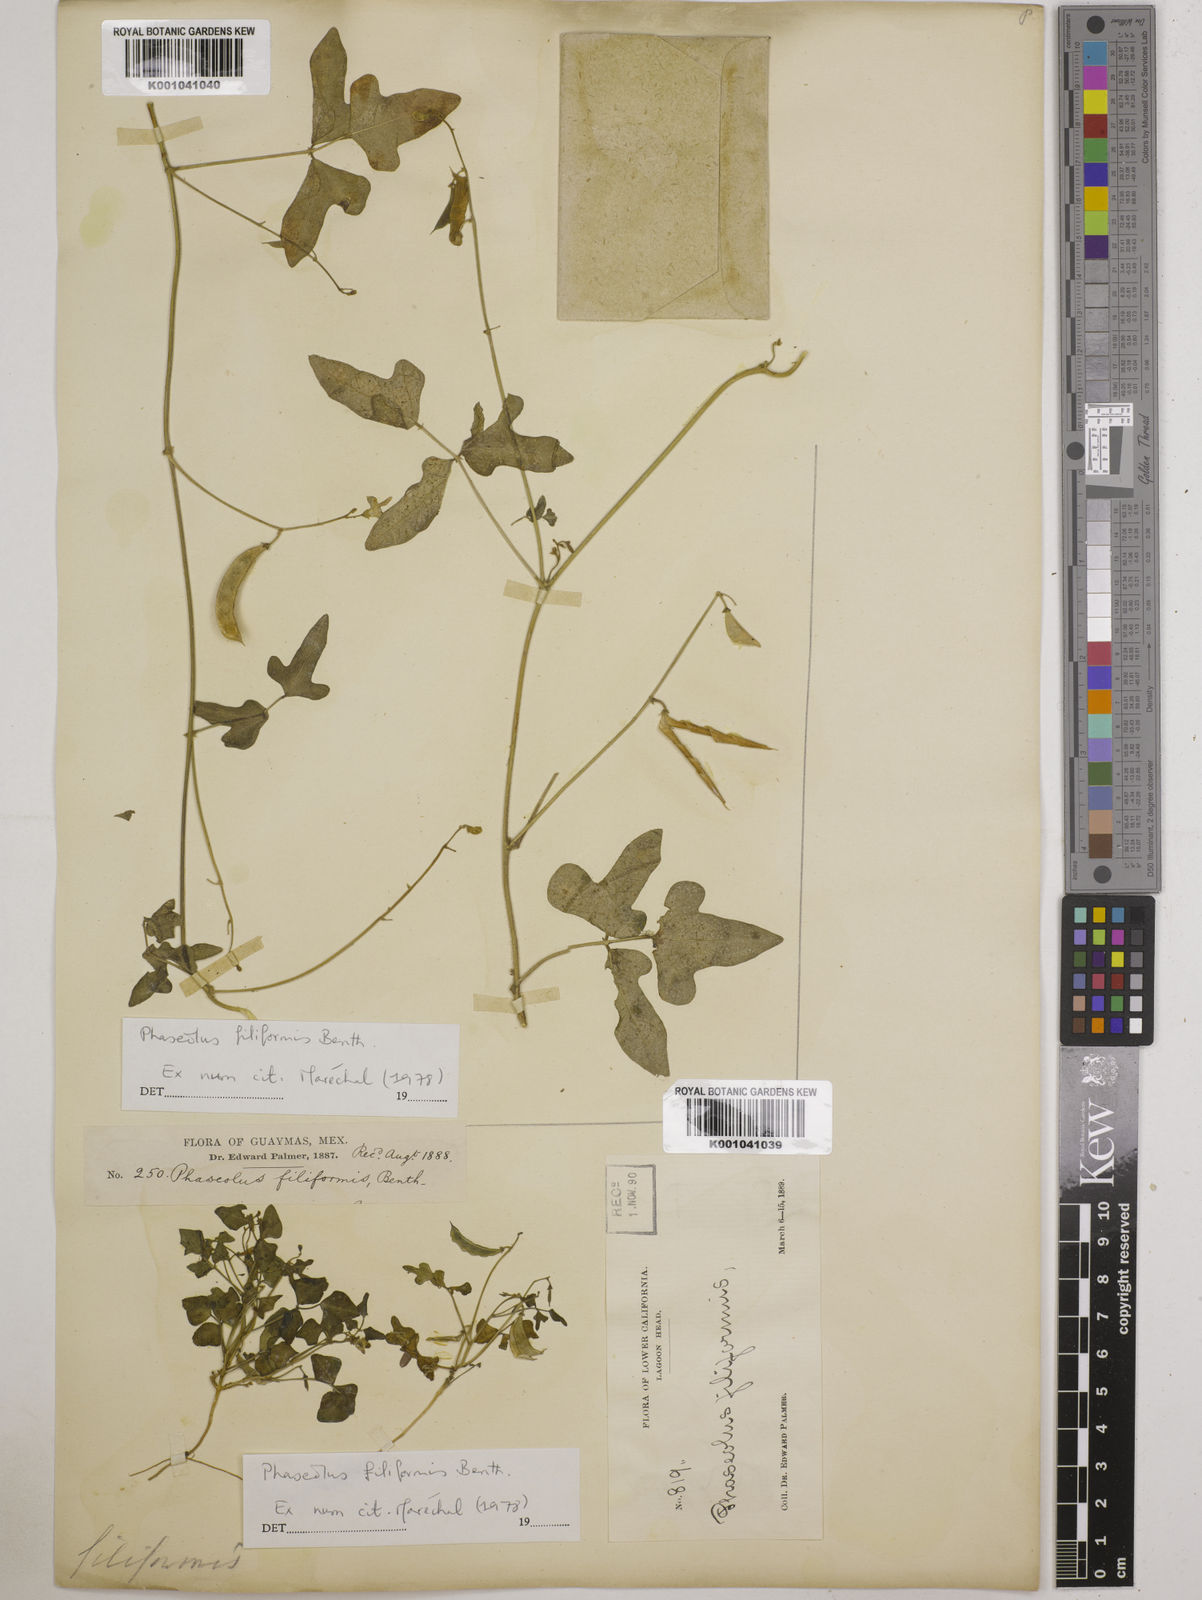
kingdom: Plantae
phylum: Tracheophyta
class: Magnoliopsida
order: Fabales
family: Fabaceae
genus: Phaseolus
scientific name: Phaseolus filiformis
